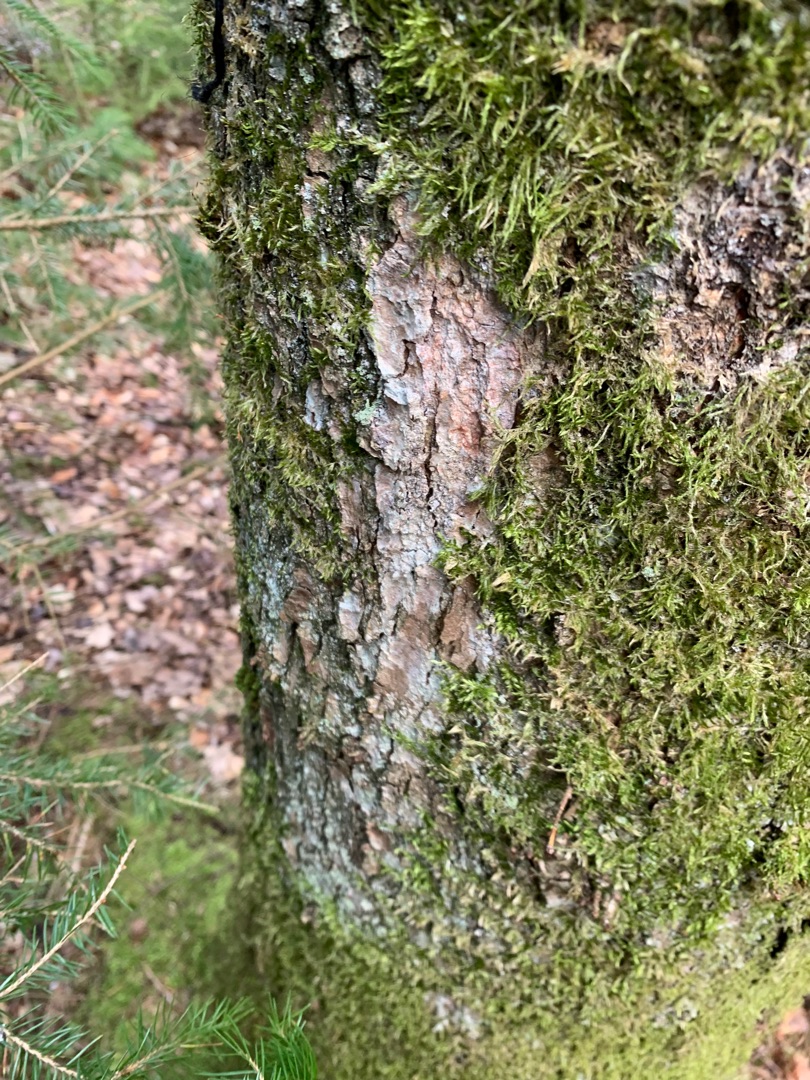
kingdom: Plantae
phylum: Bryophyta
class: Bryopsida
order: Hypnales
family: Hypnaceae
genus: Hypnum
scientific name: Hypnum
